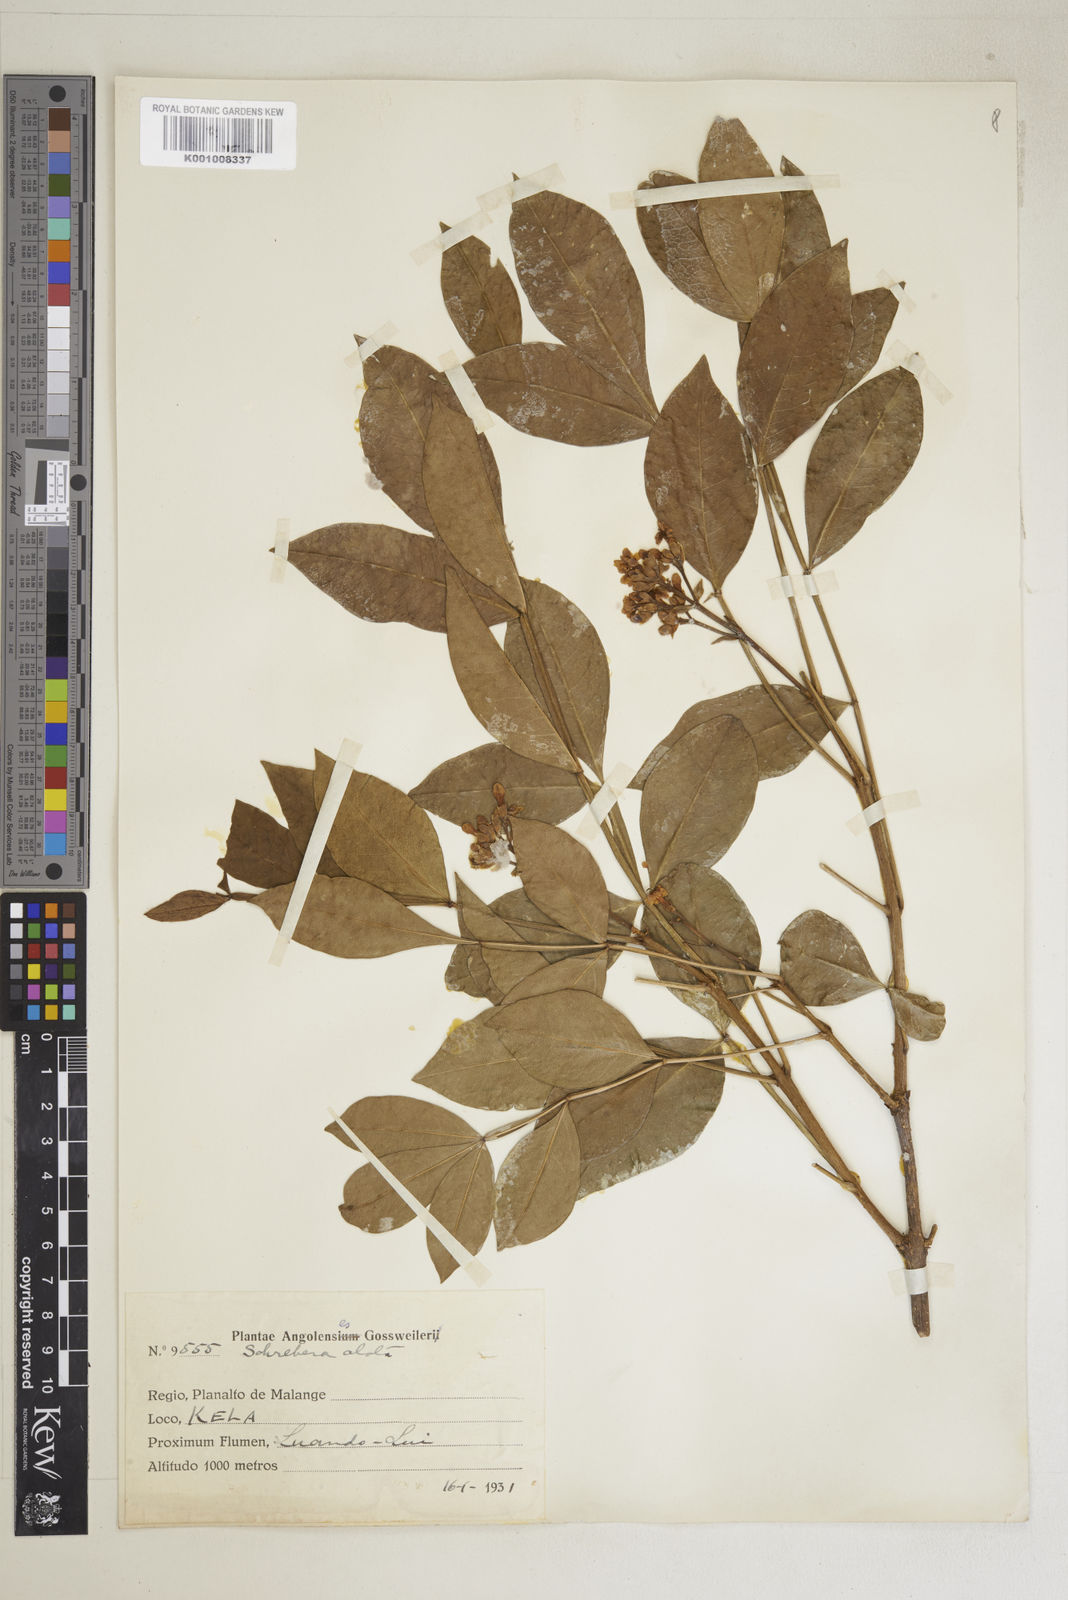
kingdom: Plantae
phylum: Tracheophyta
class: Magnoliopsida
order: Lamiales
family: Oleaceae
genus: Schrebera
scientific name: Schrebera alata
